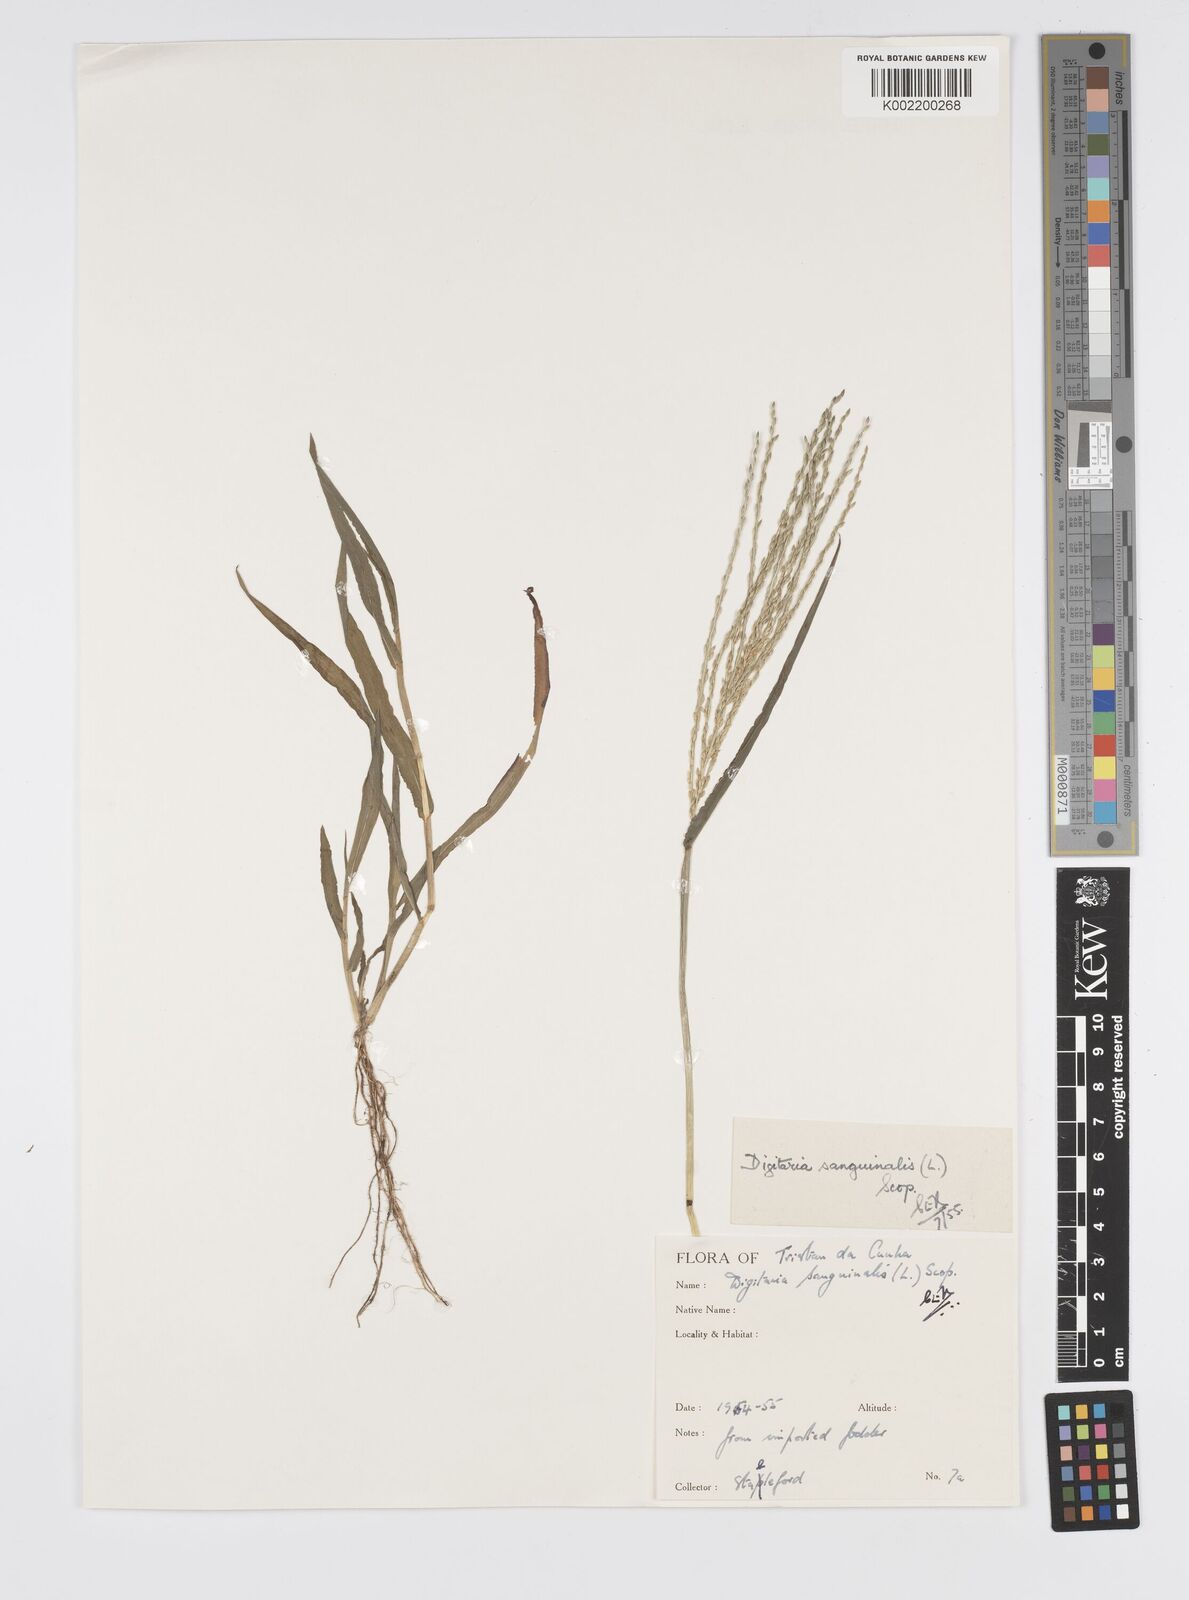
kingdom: Plantae
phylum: Tracheophyta
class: Liliopsida
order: Poales
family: Poaceae
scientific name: Poaceae
